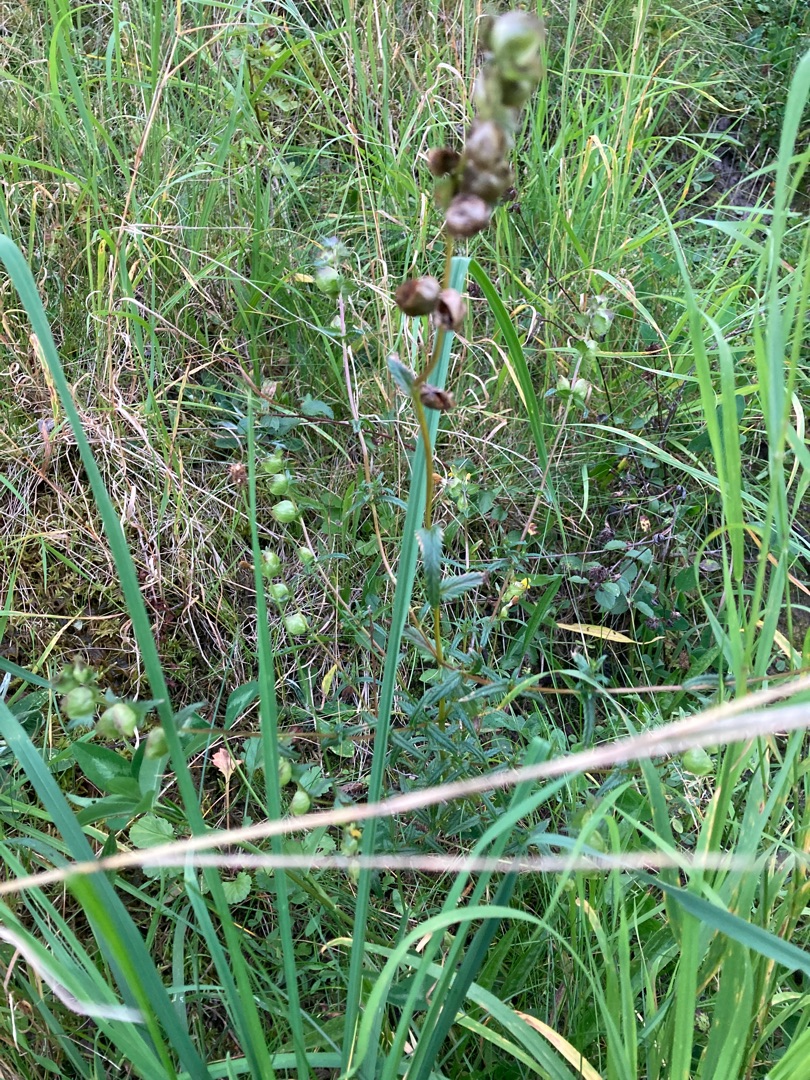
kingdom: Plantae
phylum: Tracheophyta
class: Magnoliopsida
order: Lamiales
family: Orobanchaceae
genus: Rhinanthus
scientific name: Rhinanthus minor
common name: Liden skjaller
